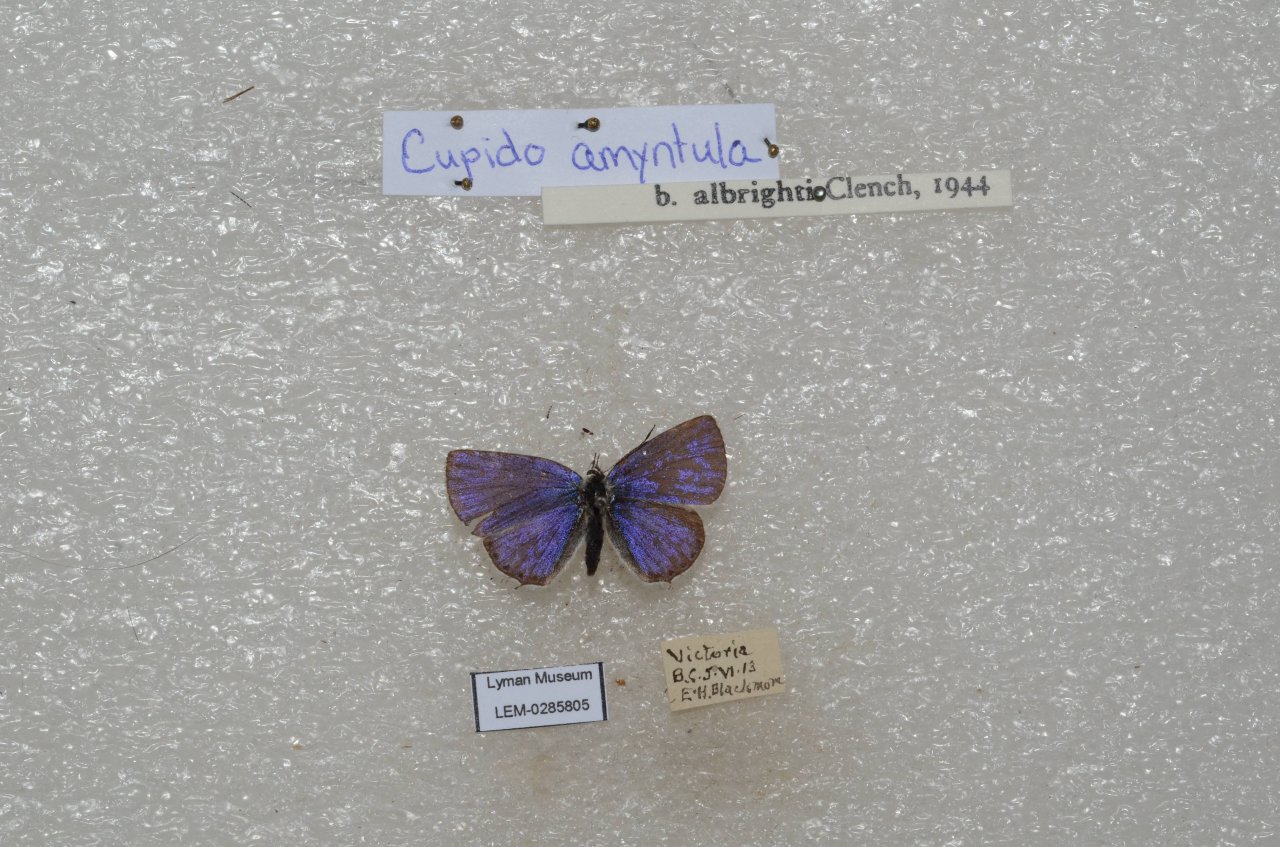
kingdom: Animalia
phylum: Arthropoda
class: Insecta
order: Lepidoptera
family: Lycaenidae
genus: Elkalyce
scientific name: Elkalyce amyntula
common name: Western Tailed-Blue
